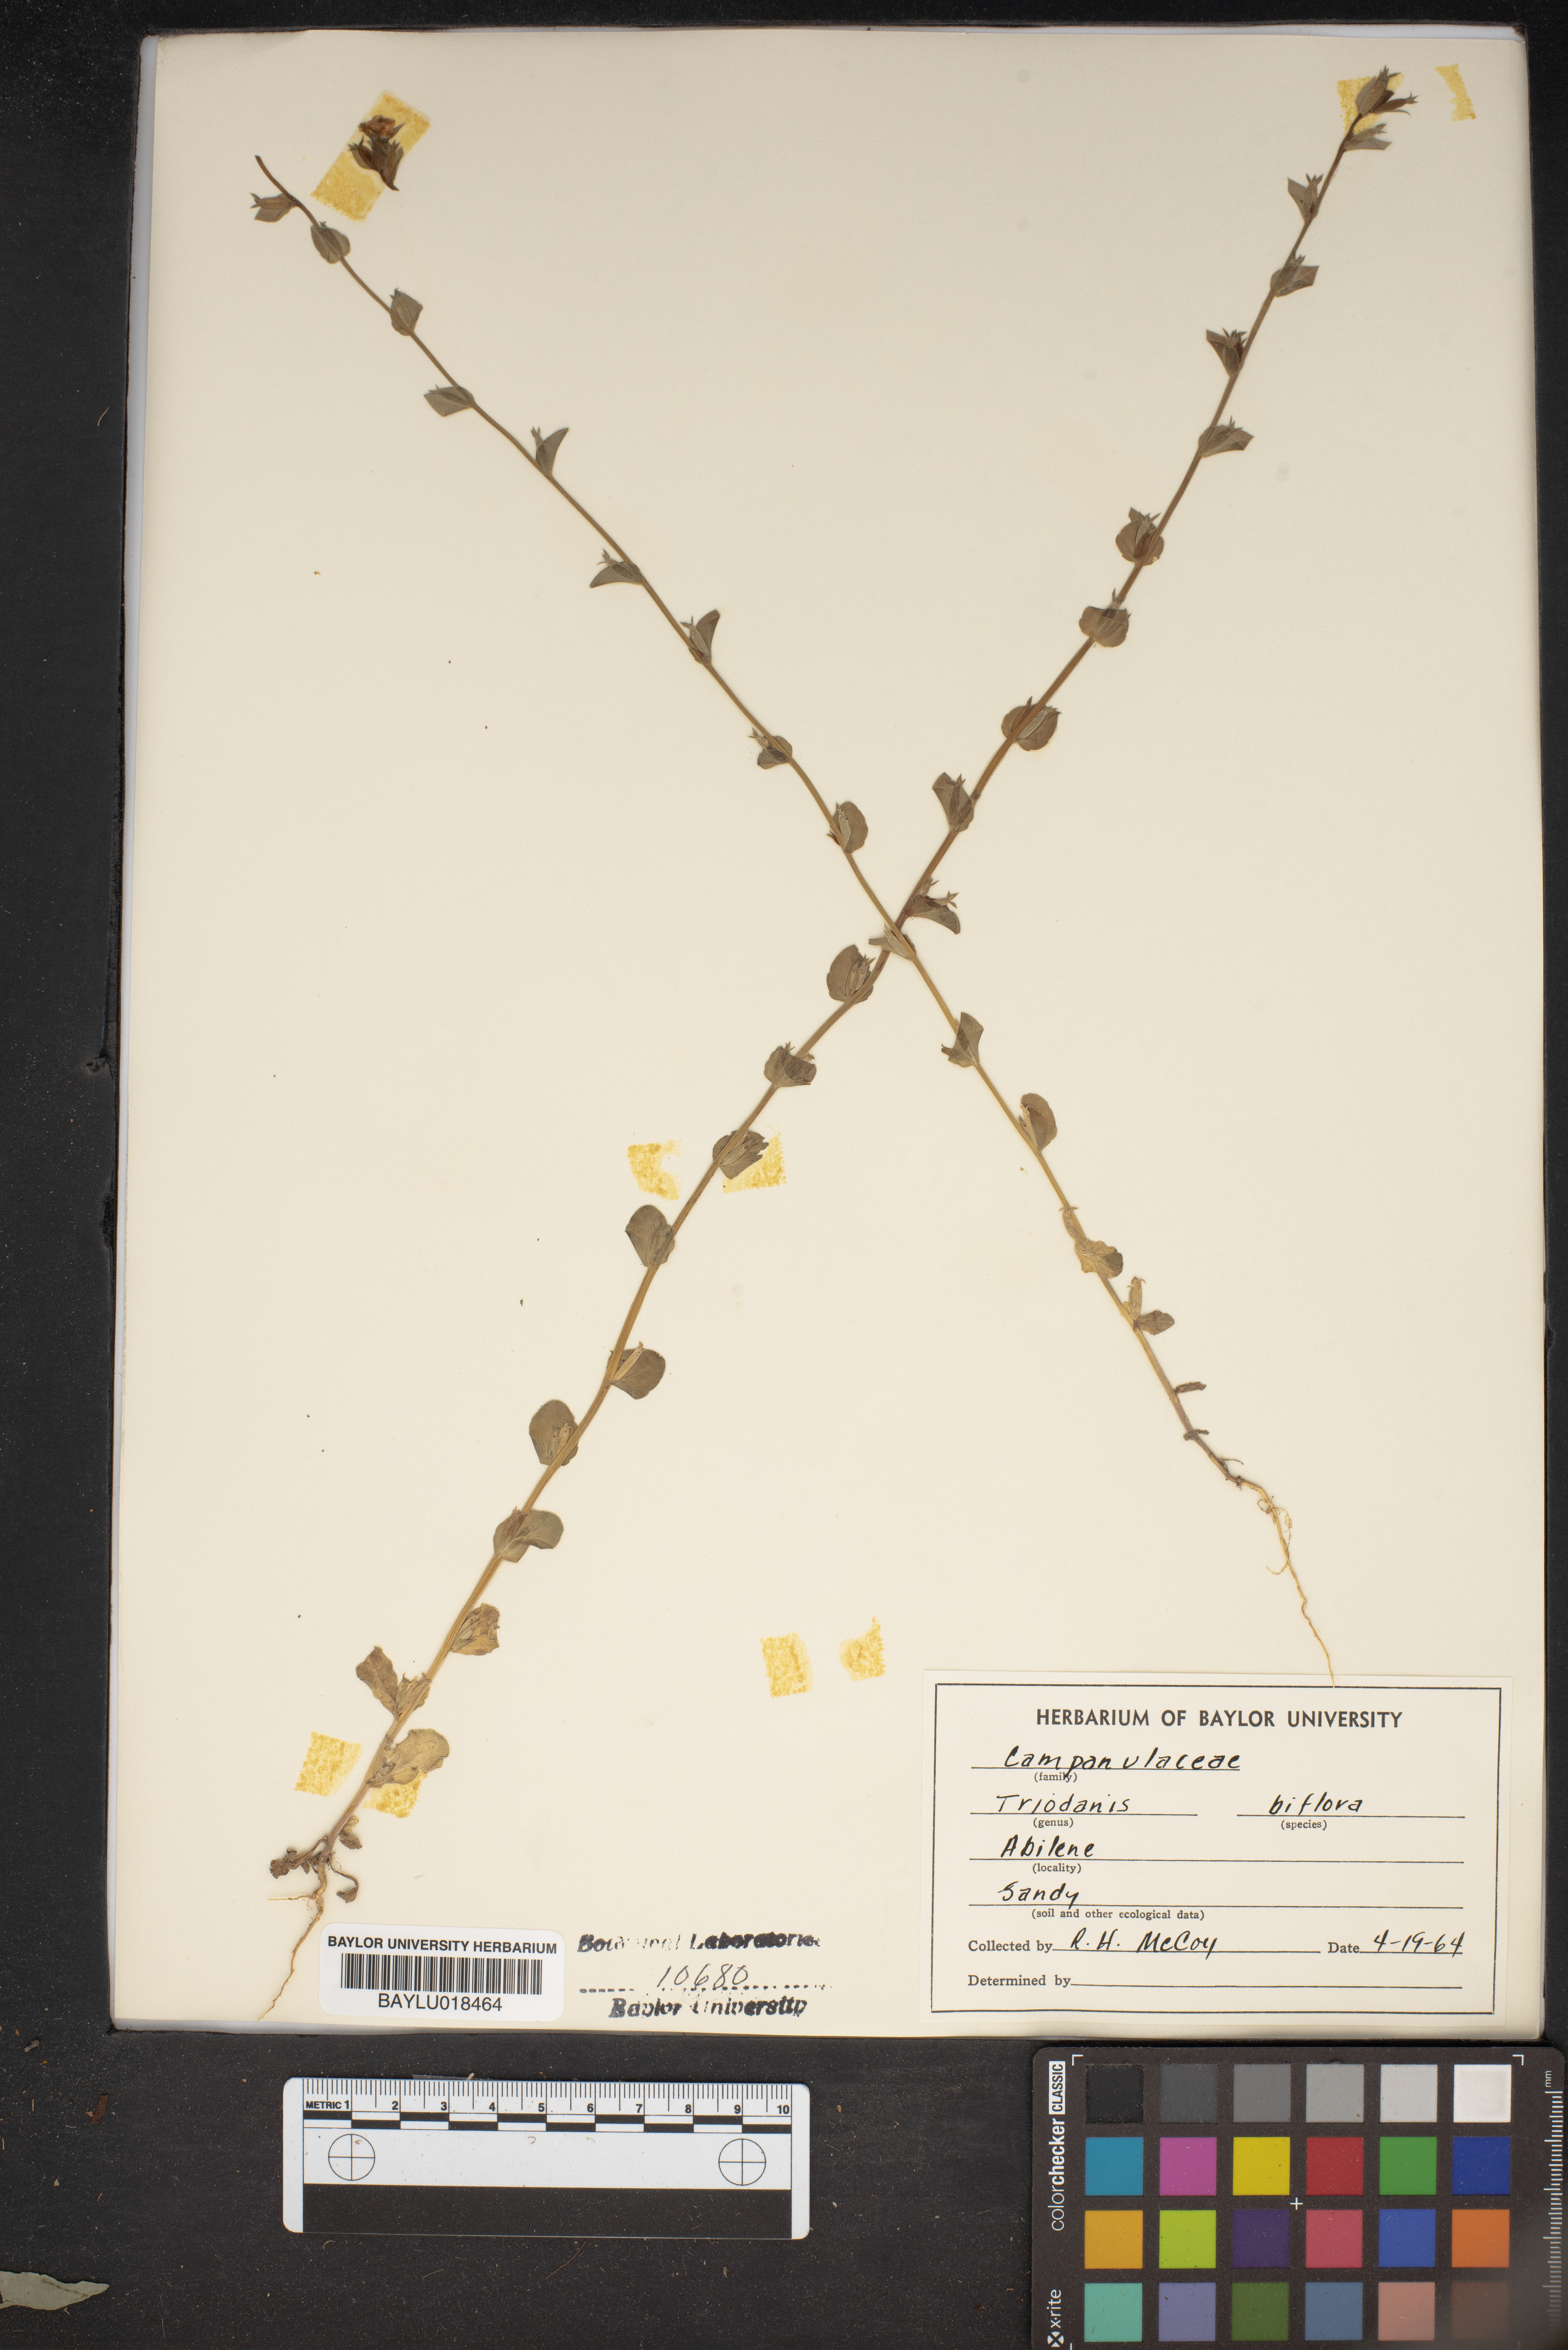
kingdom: Plantae
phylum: Tracheophyta
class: Magnoliopsida
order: Asterales
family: Campanulaceae
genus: Triodanis
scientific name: Triodanis perfoliata
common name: Clasping venus' looking-glass
